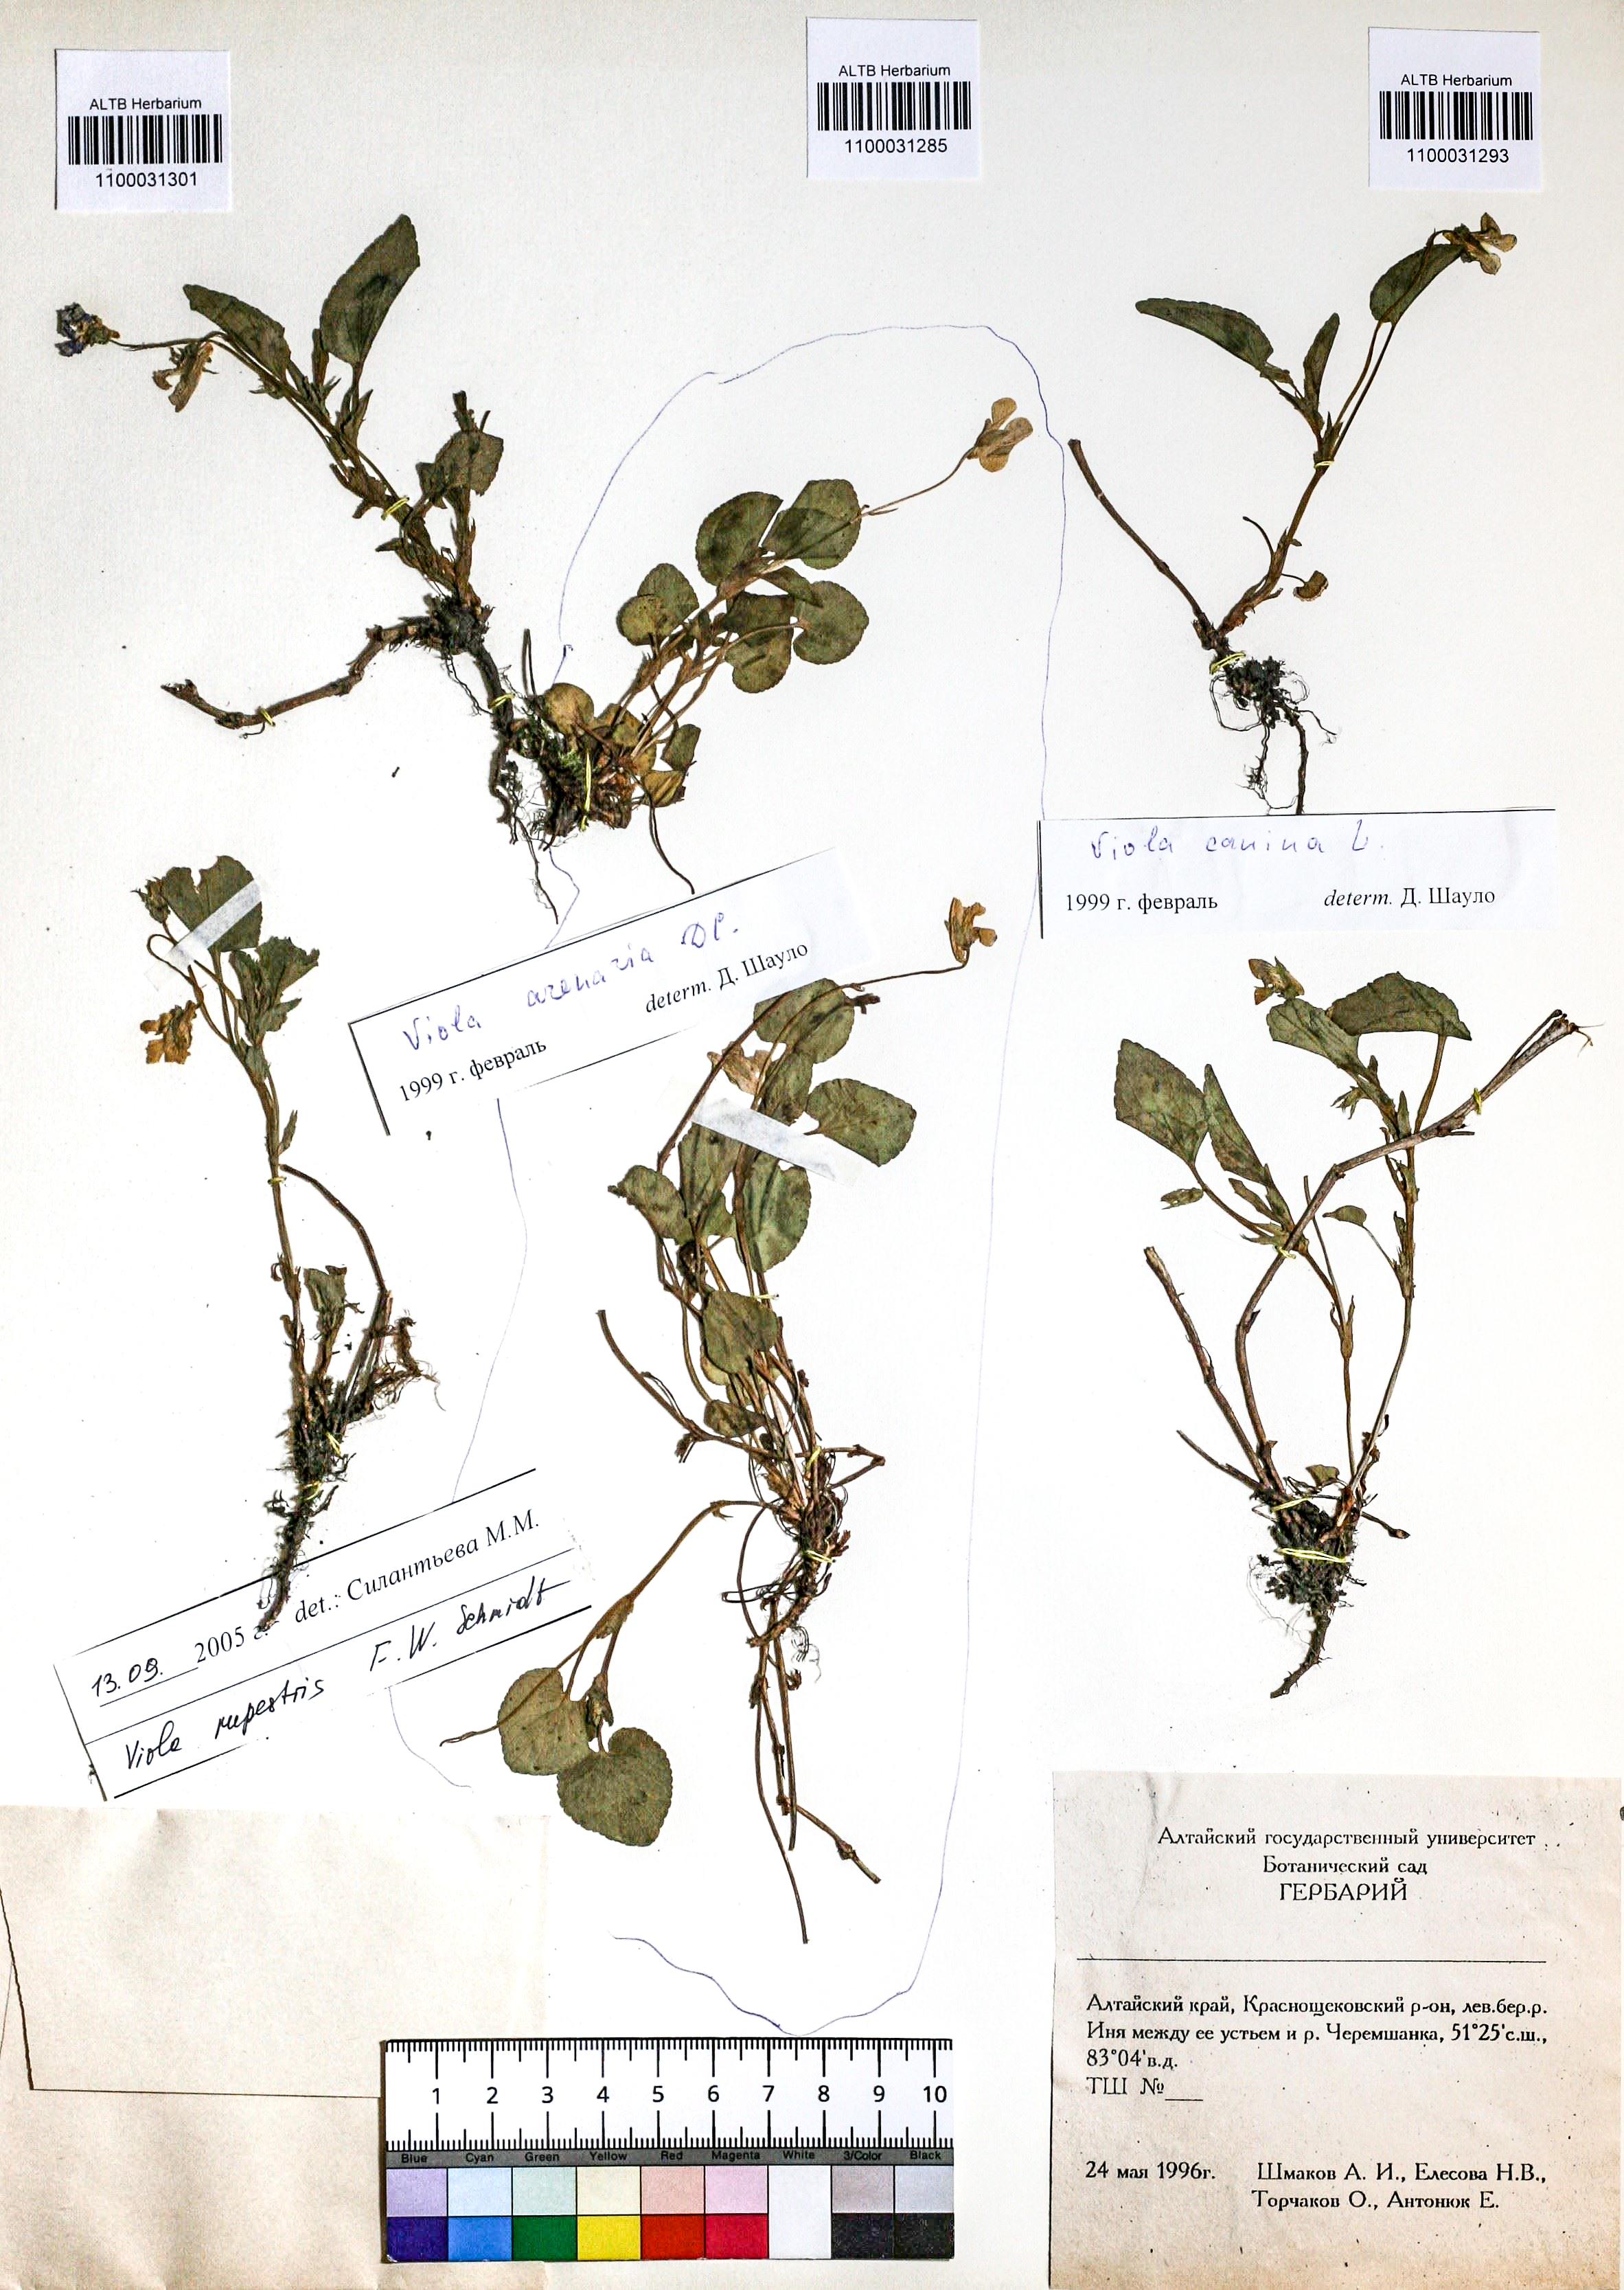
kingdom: Plantae
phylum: Tracheophyta
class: Magnoliopsida
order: Malpighiales
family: Violaceae
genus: Viola
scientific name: Viola canina
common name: Heath dog-violet
